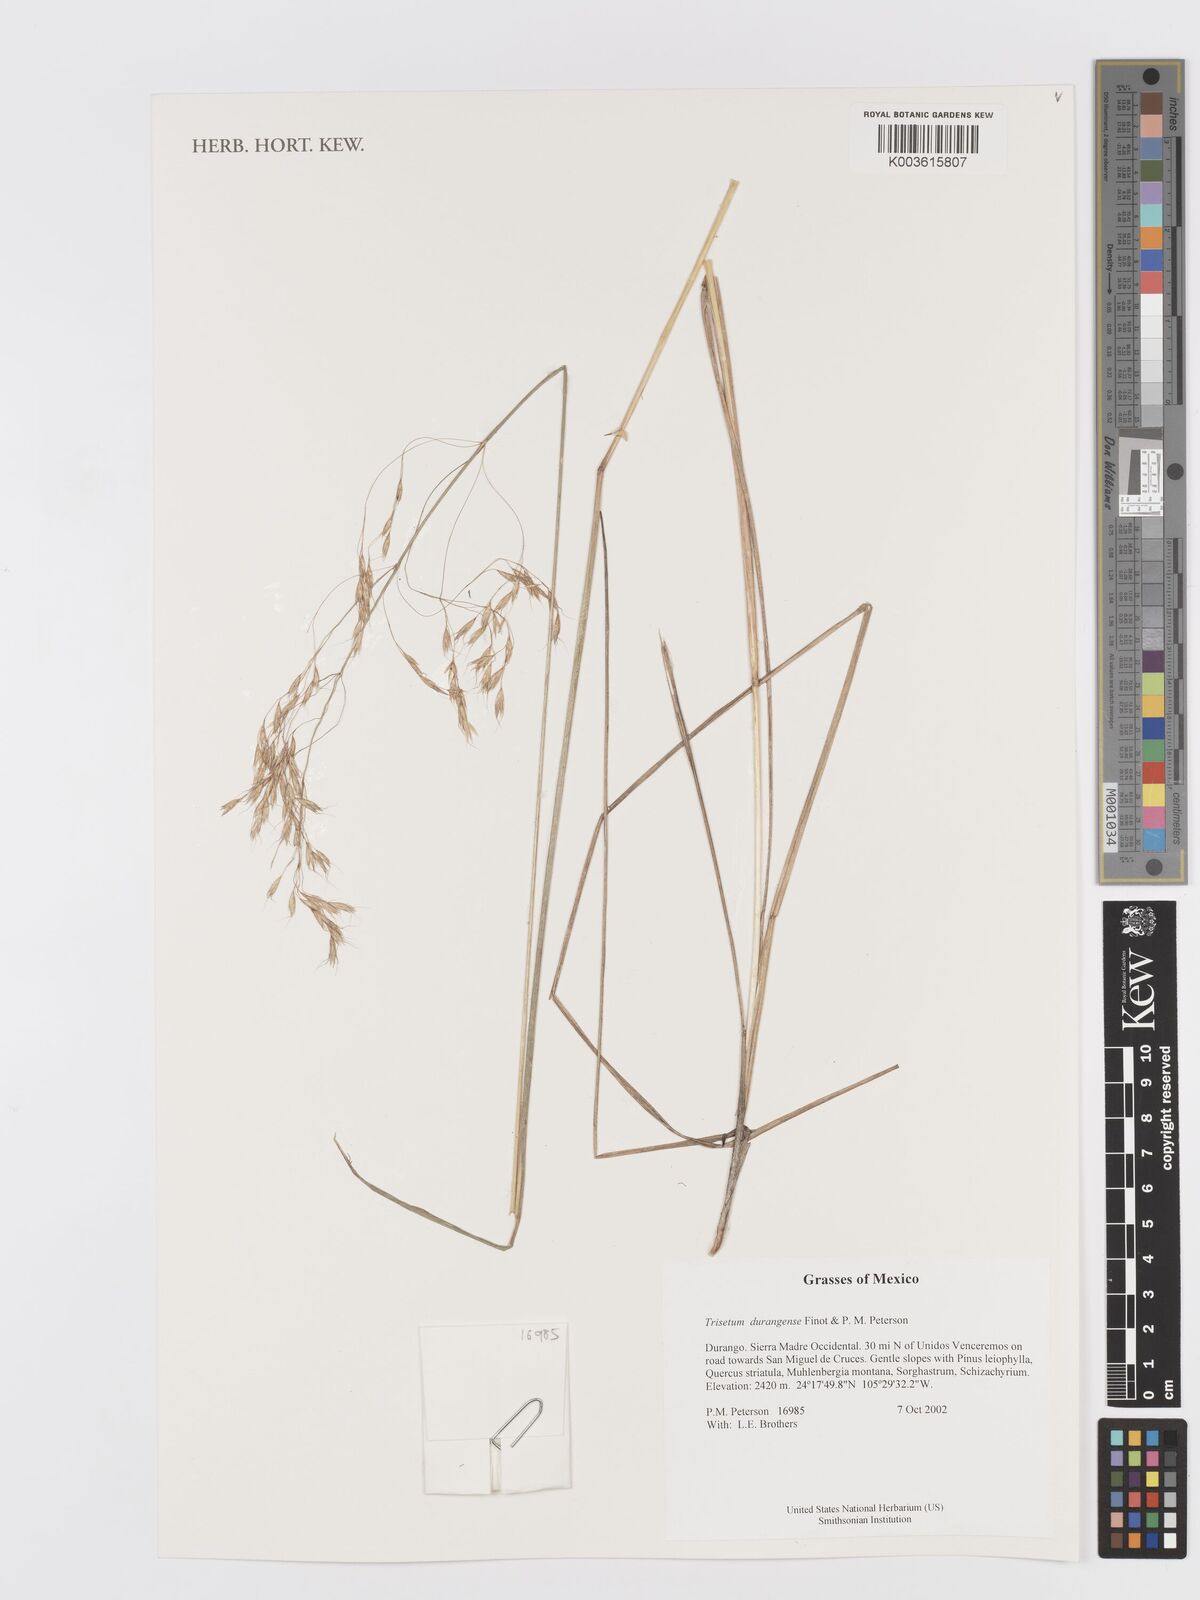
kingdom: Plantae
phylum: Tracheophyta
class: Liliopsida
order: Poales
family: Poaceae
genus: Peyritschia
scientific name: Peyritschia durangensis
